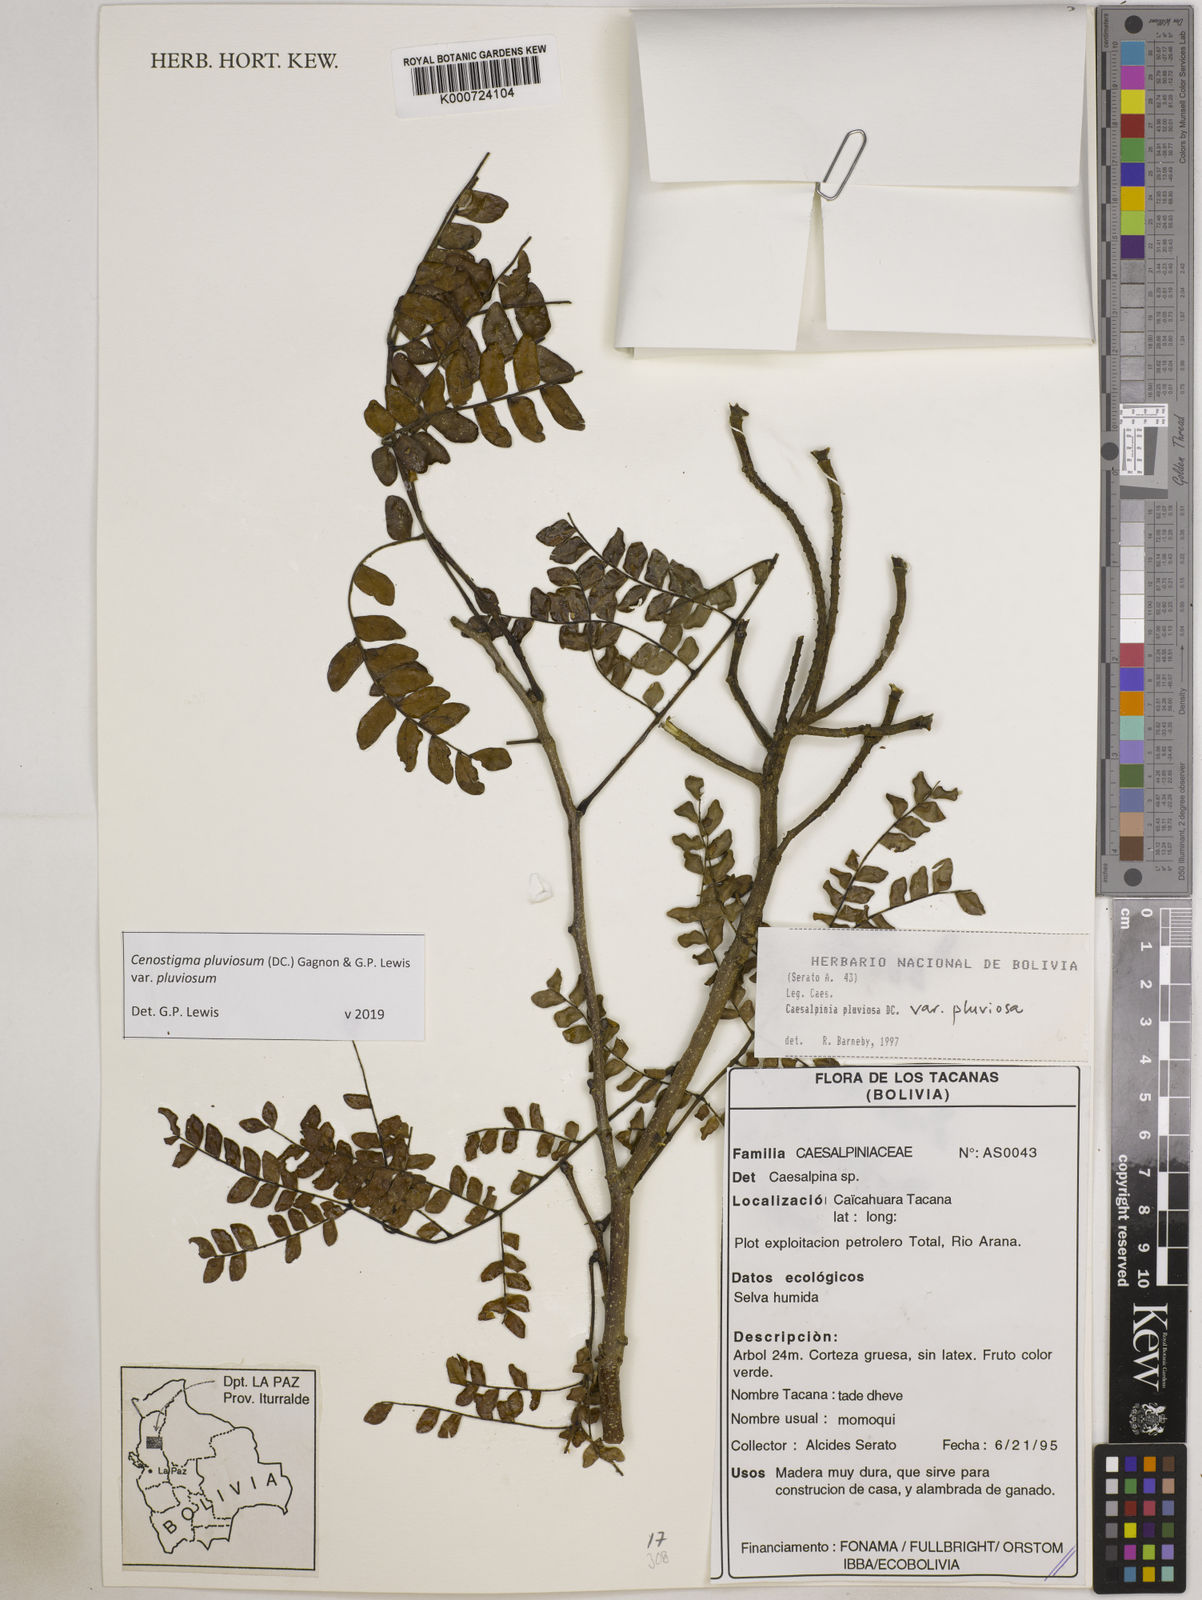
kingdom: Plantae
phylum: Tracheophyta
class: Magnoliopsida
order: Fabales
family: Fabaceae
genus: Cenostigma
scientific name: Cenostigma pluviosum
